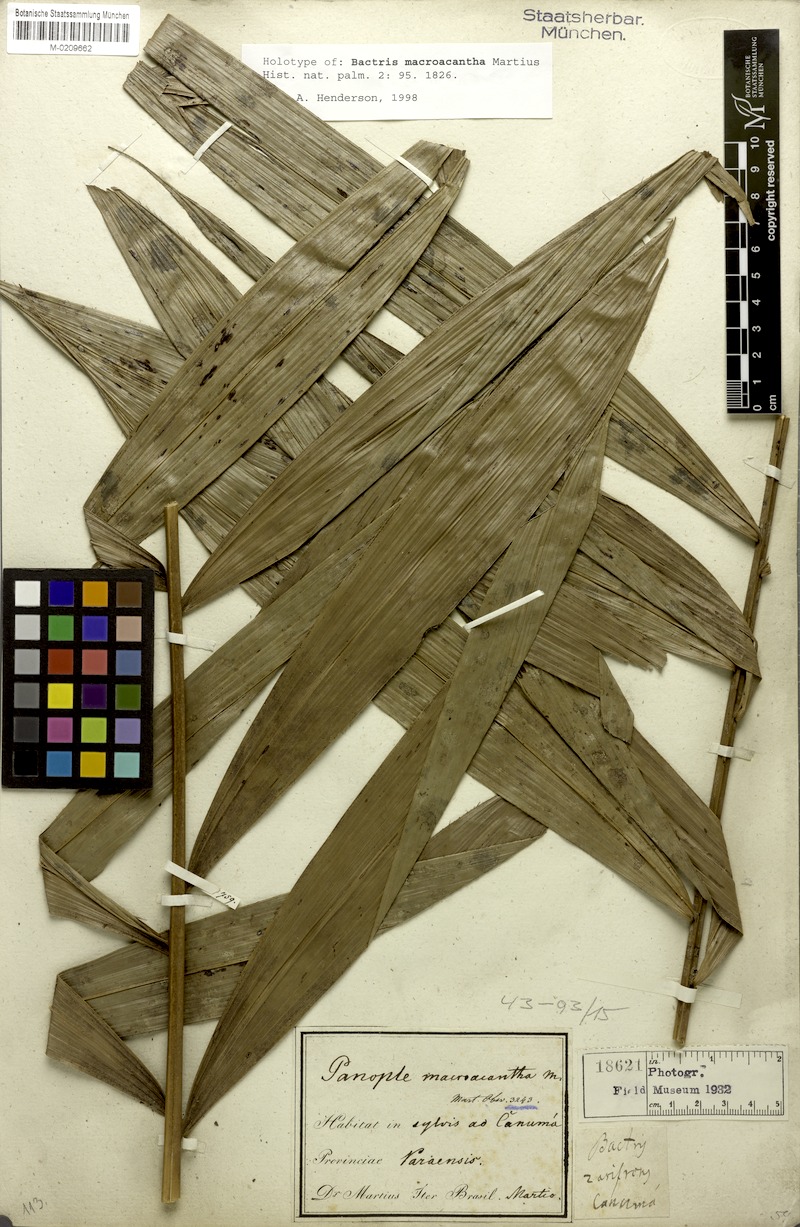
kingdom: Plantae
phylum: Tracheophyta
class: Liliopsida
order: Arecales
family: Arecaceae
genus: Bactris
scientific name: Bactris macroacantha
